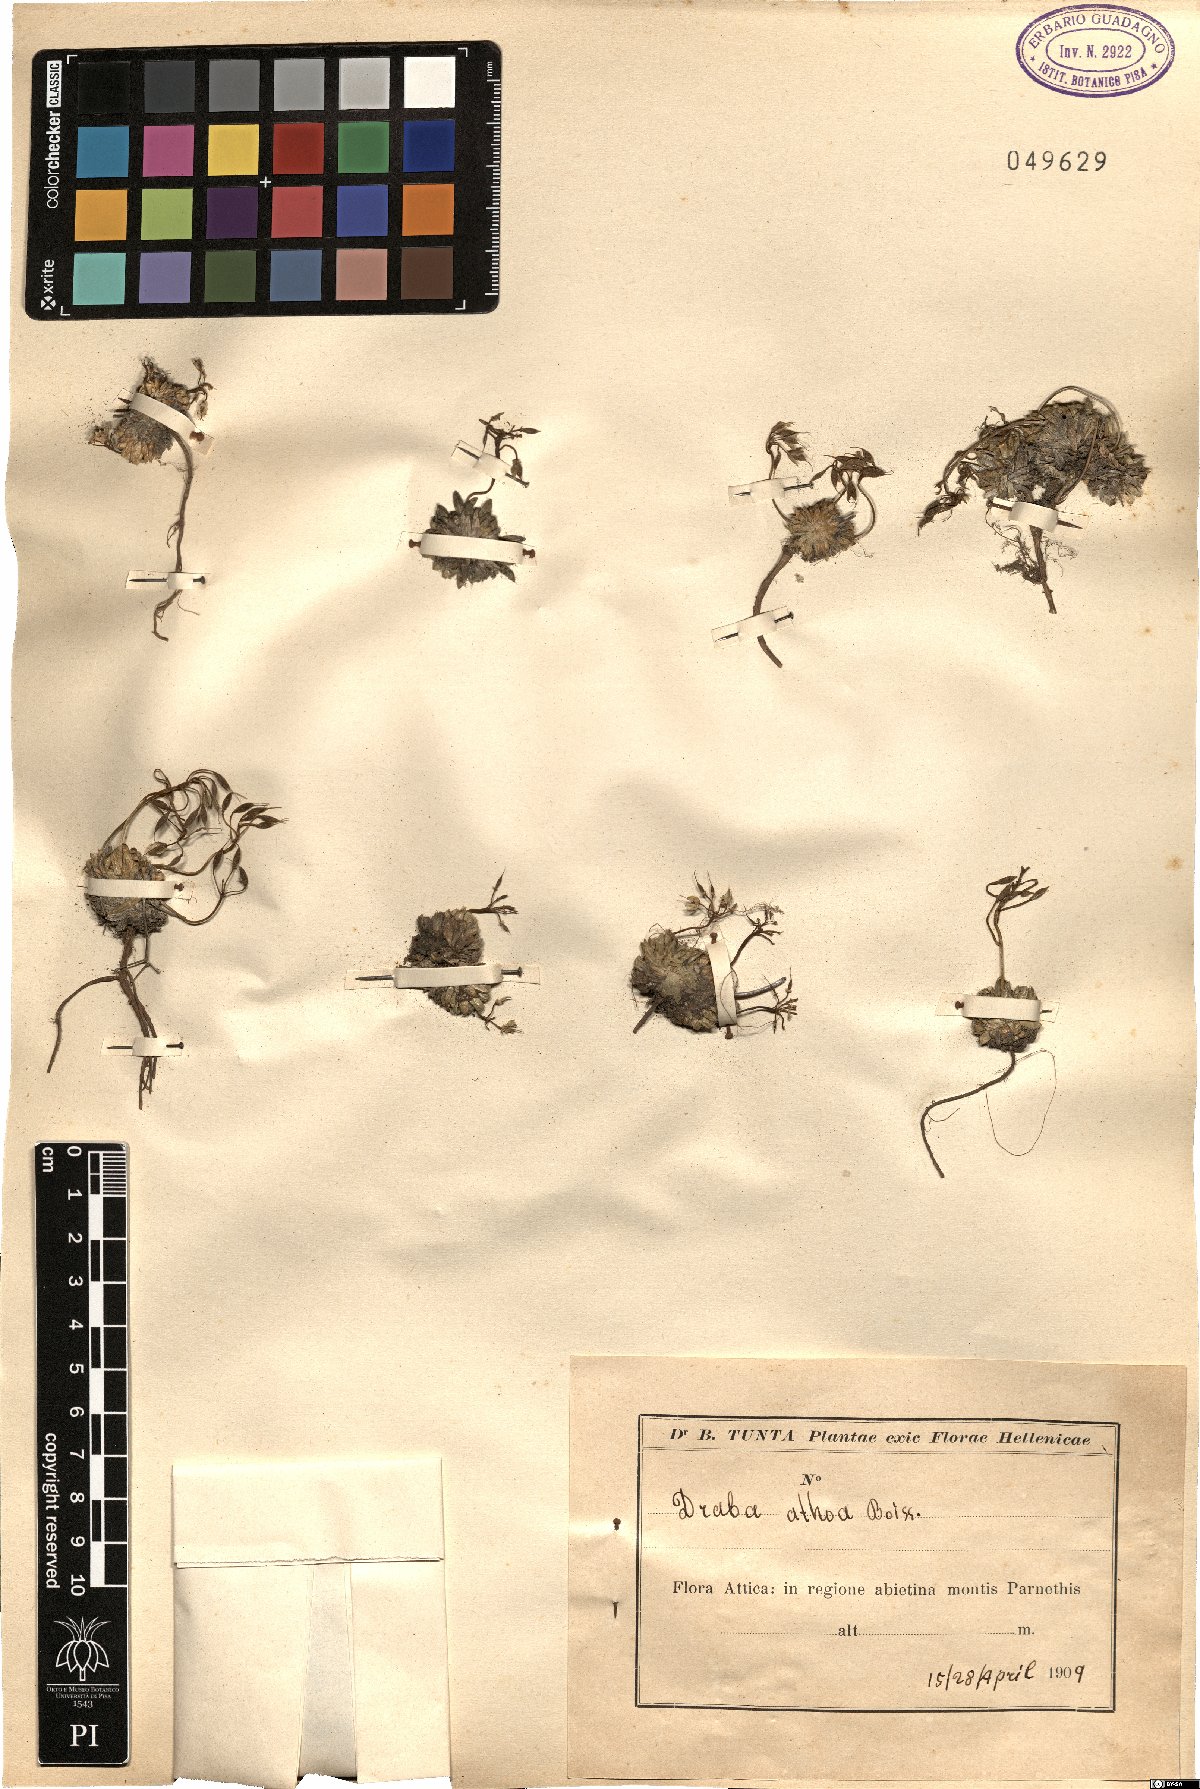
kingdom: Plantae
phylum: Tracheophyta
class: Magnoliopsida
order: Brassicales
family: Brassicaceae
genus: Draba
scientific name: Draba lasiocarpa
